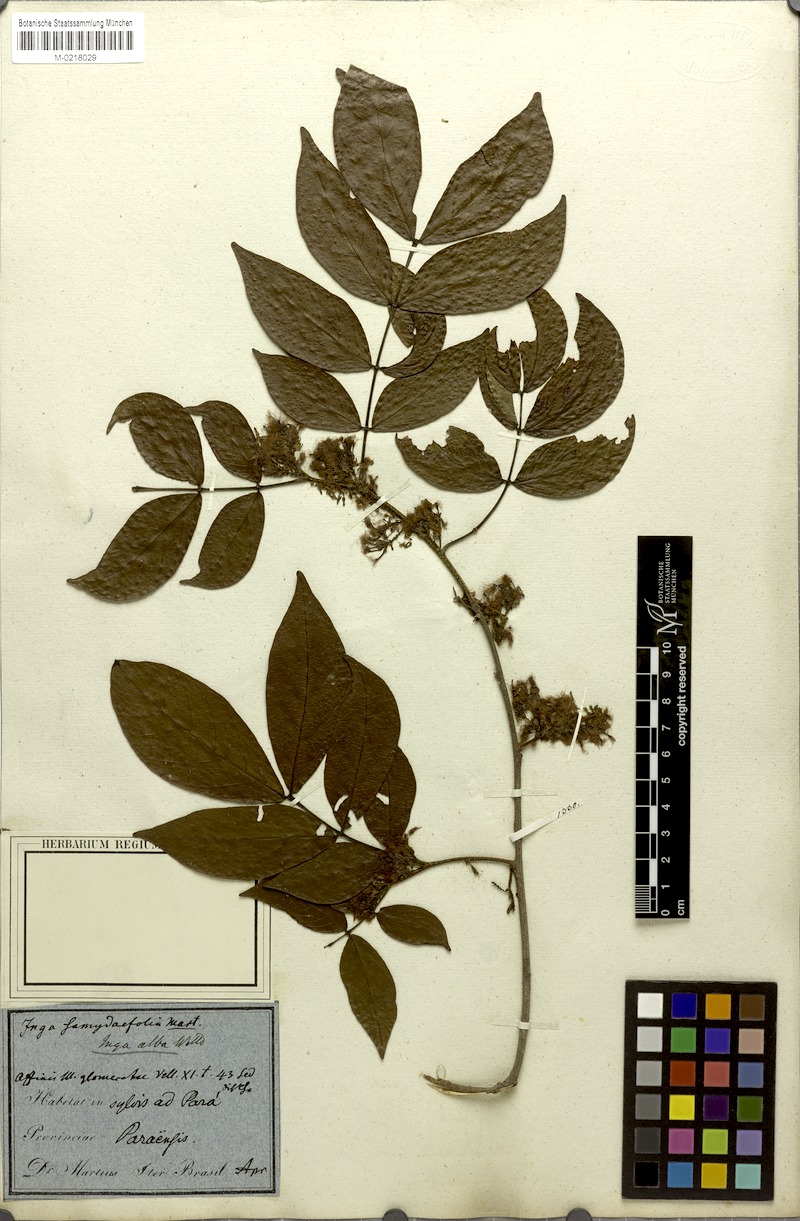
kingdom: Plantae
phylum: Tracheophyta
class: Magnoliopsida
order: Fabales
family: Fabaceae
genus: Inga
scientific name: Inga alba
